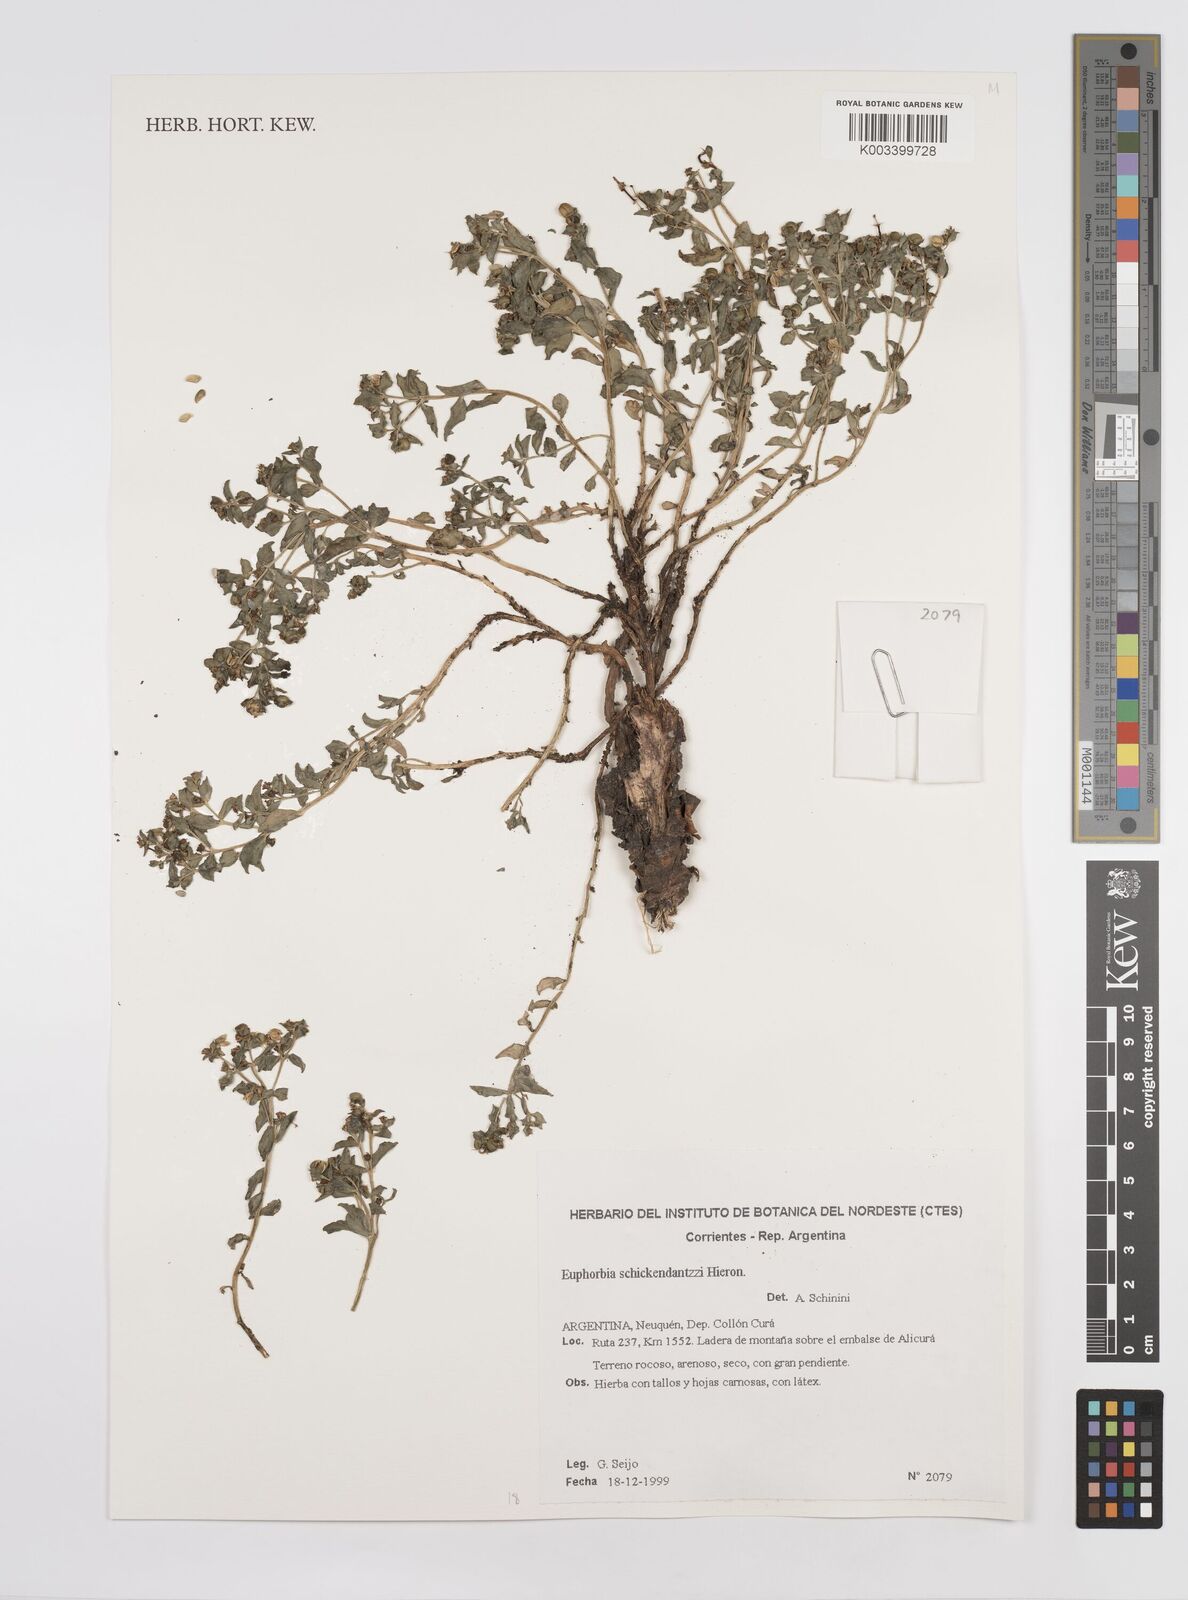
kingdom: Plantae
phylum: Tracheophyta
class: Magnoliopsida
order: Malpighiales
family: Euphorbiaceae
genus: Euphorbia
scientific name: Euphorbia schickendantzii
